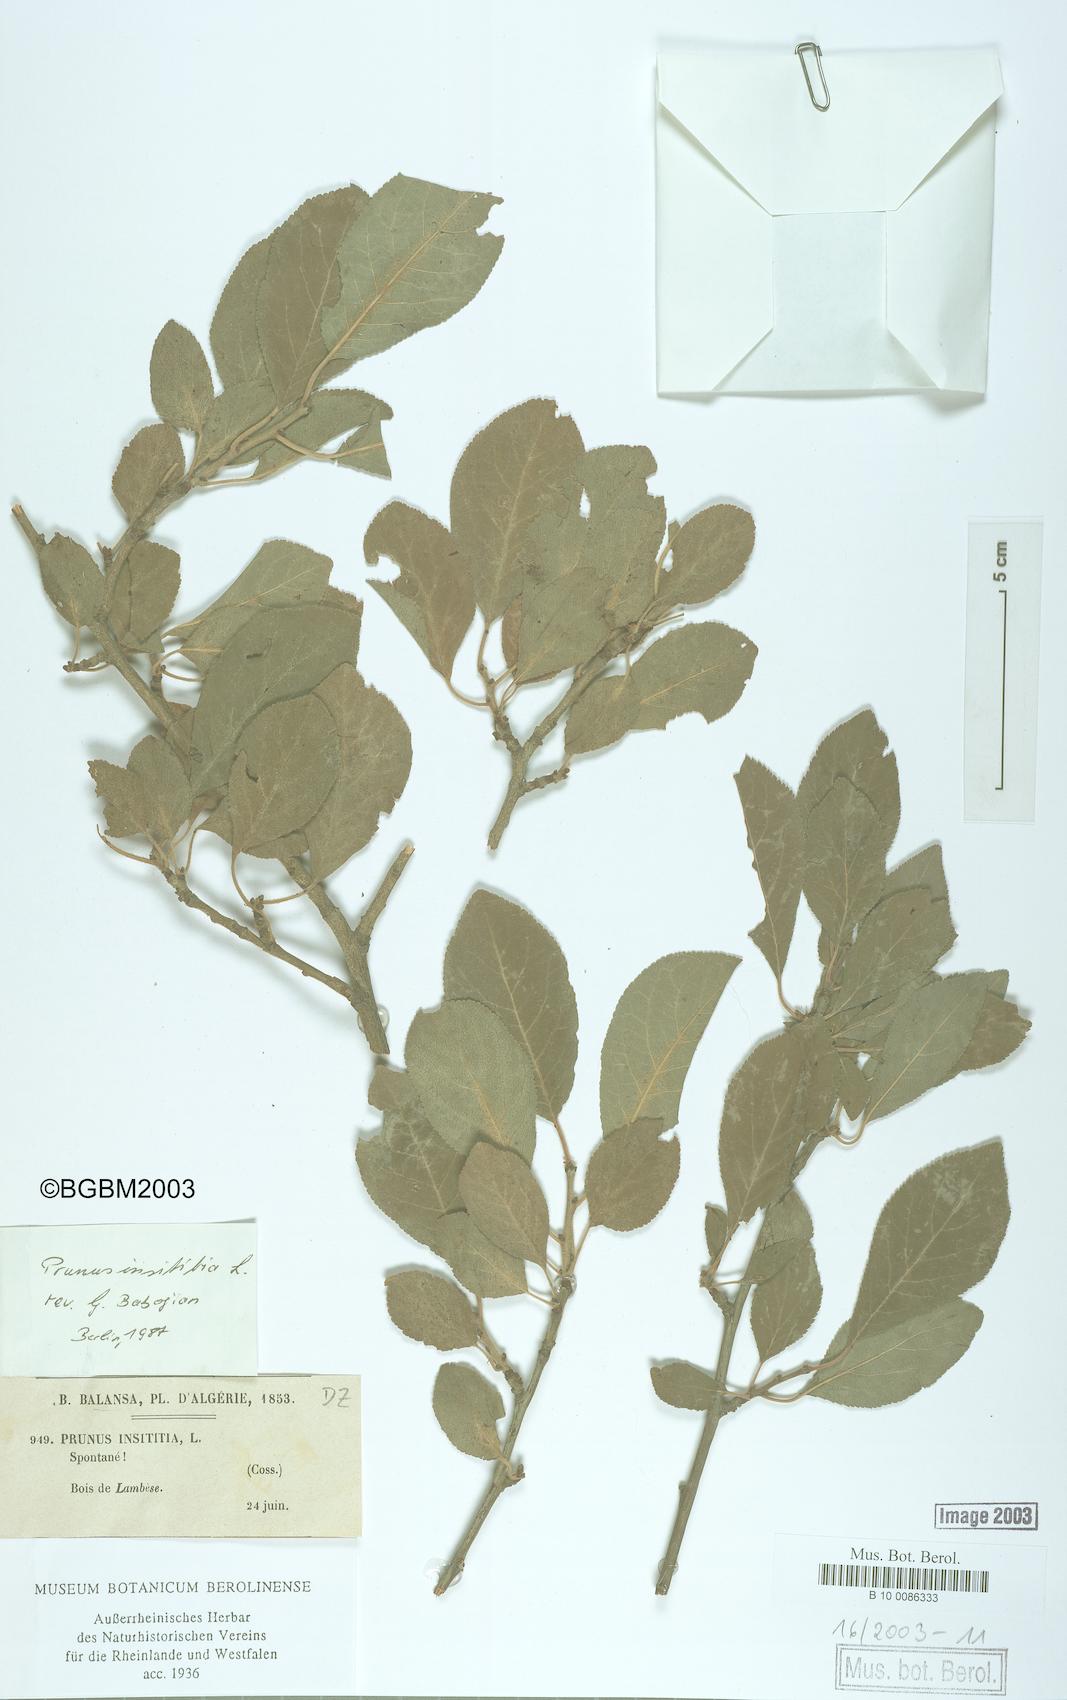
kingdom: Plantae
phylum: Tracheophyta
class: Magnoliopsida
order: Rosales
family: Rosaceae
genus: Prunus
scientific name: Prunus domestica
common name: Wild plum
